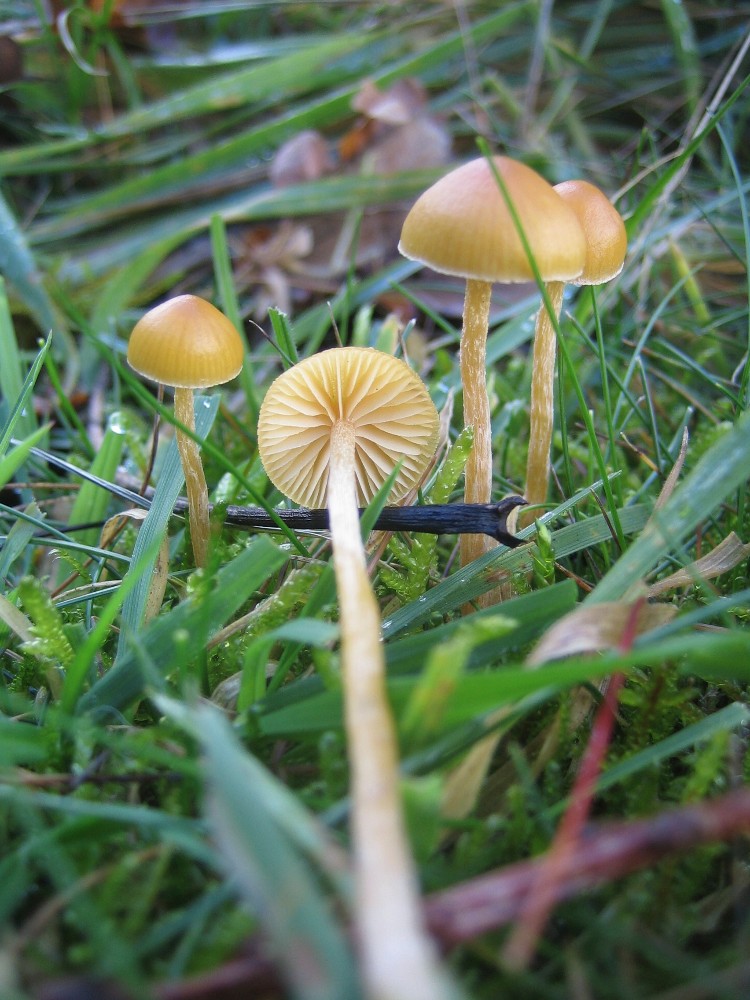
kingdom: Fungi
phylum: Basidiomycota
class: Agaricomycetes
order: Agaricales
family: Hymenogastraceae
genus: Galerina
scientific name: Galerina
